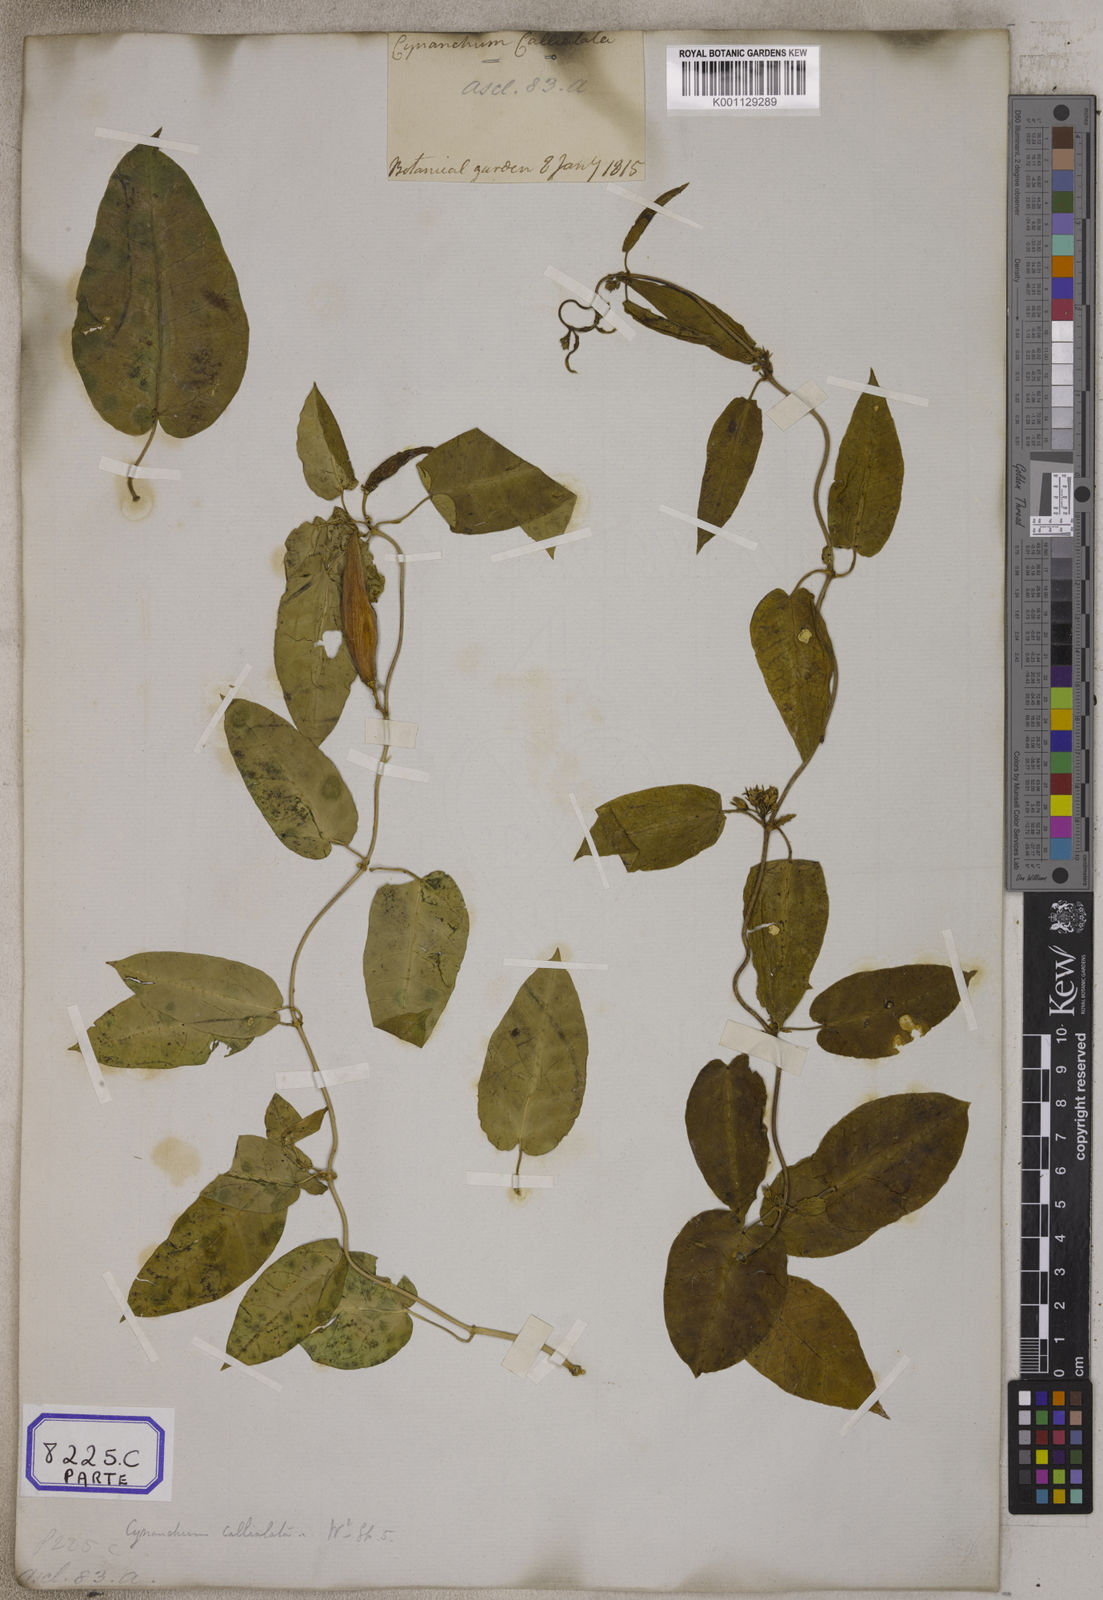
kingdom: Plantae
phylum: Tracheophyta
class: Magnoliopsida
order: Gentianales
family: Apocynaceae
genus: Cynanchum
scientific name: Cynanchum tunicatum
